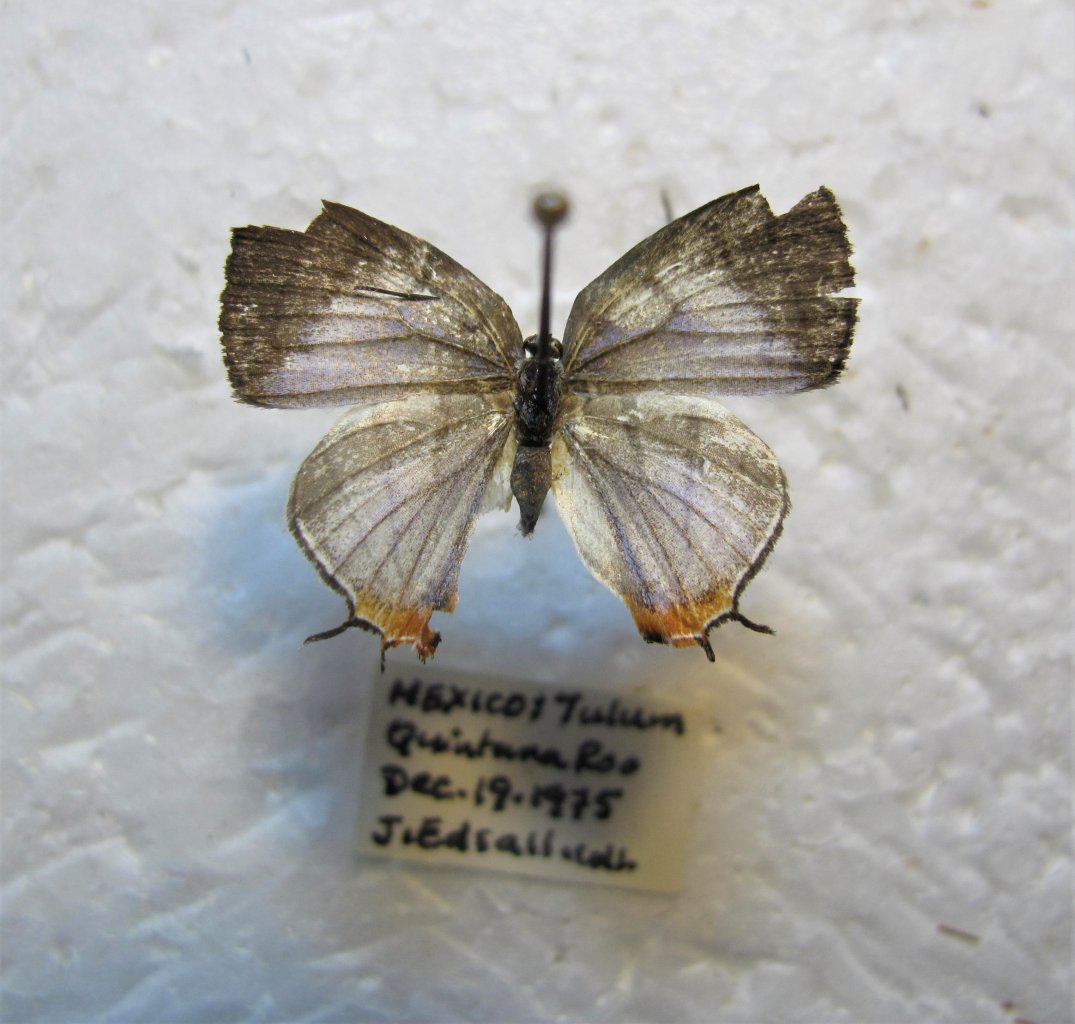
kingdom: Animalia
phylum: Arthropoda
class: Insecta
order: Lepidoptera
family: Lycaenidae
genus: Arawacus
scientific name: Arawacus sito
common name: Fine-lined Hairstreak
